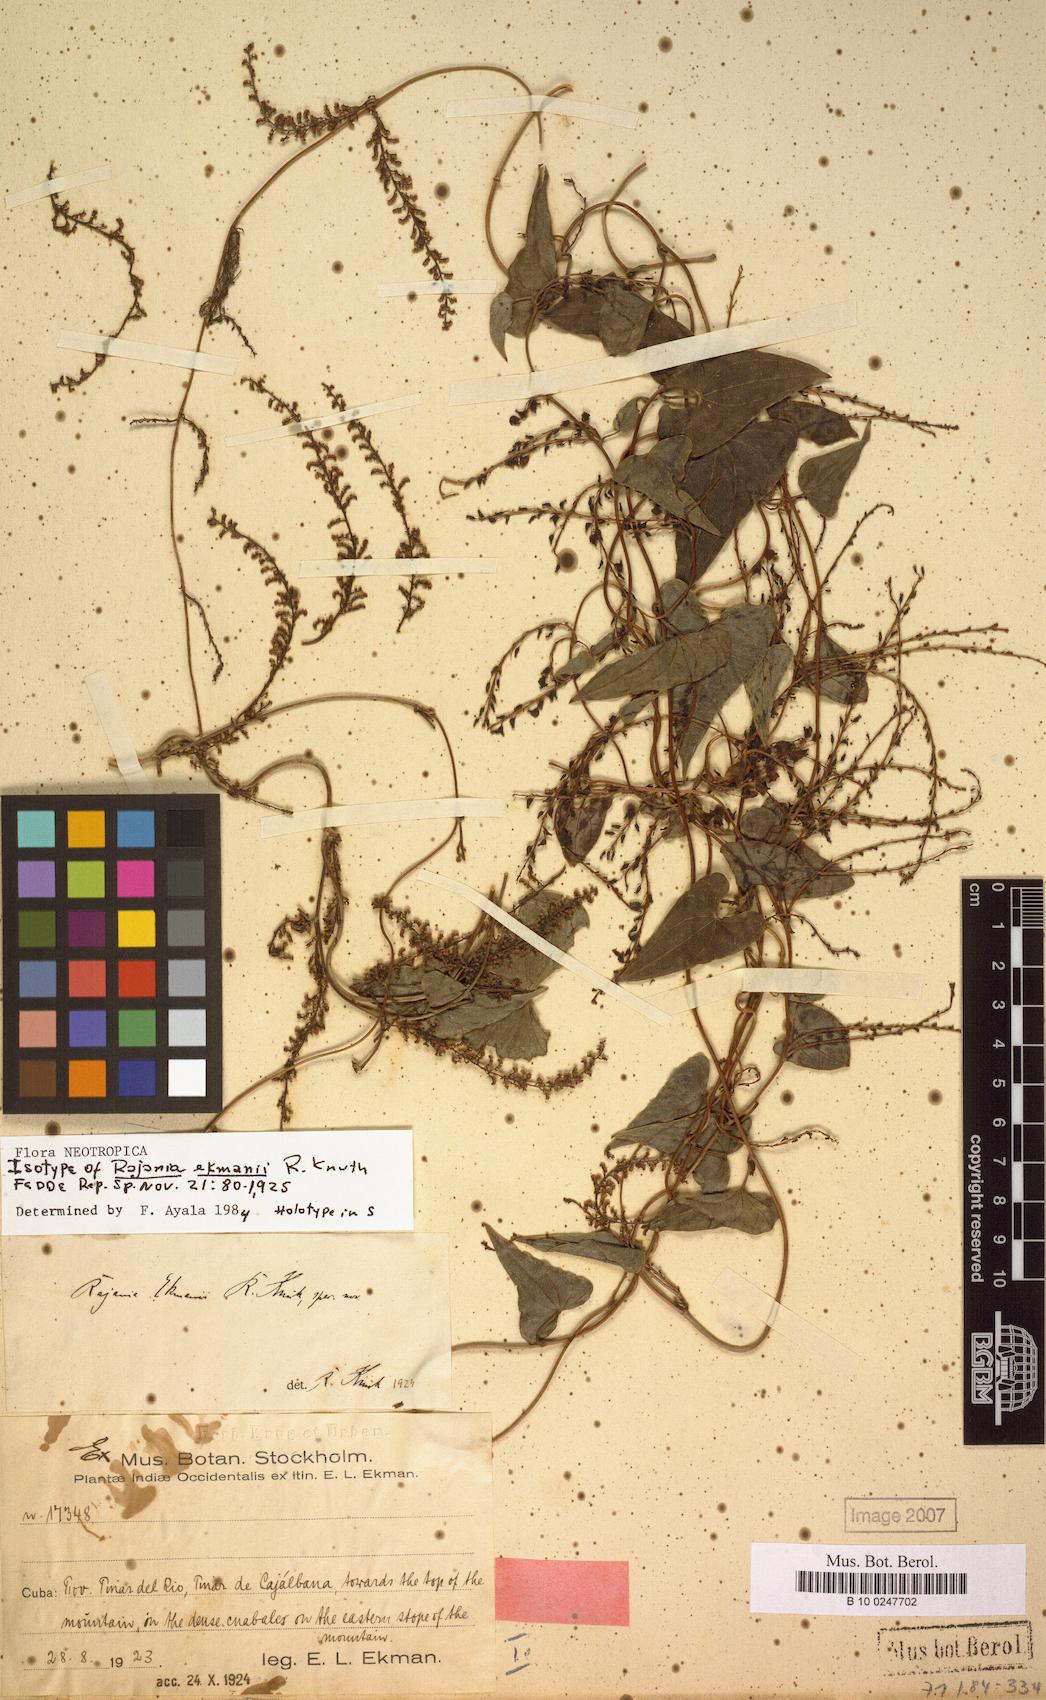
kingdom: Plantae
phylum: Tracheophyta
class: Liliopsida
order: Dioscoreales
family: Dioscoreaceae
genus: Dioscorea
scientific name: Dioscorea scorpioidea
